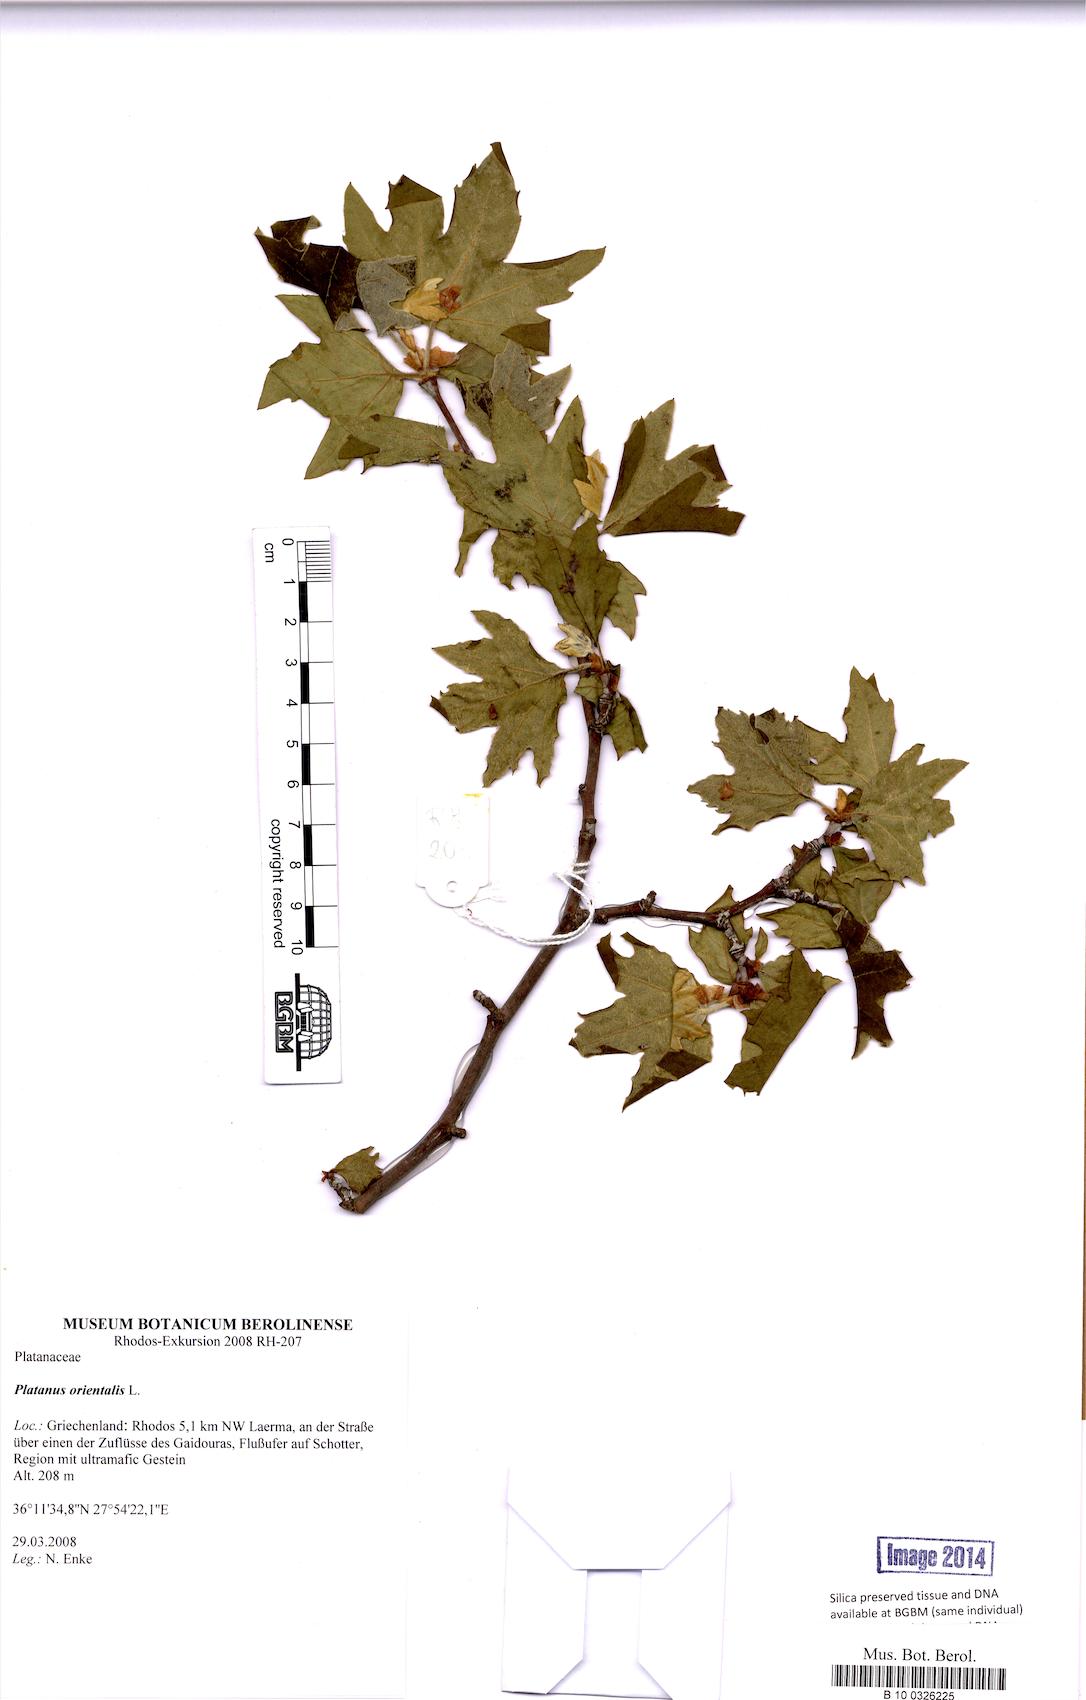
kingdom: Plantae
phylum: Tracheophyta
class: Magnoliopsida
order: Proteales
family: Platanaceae
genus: Platanus
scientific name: Platanus orientalis
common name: Oriental plane
